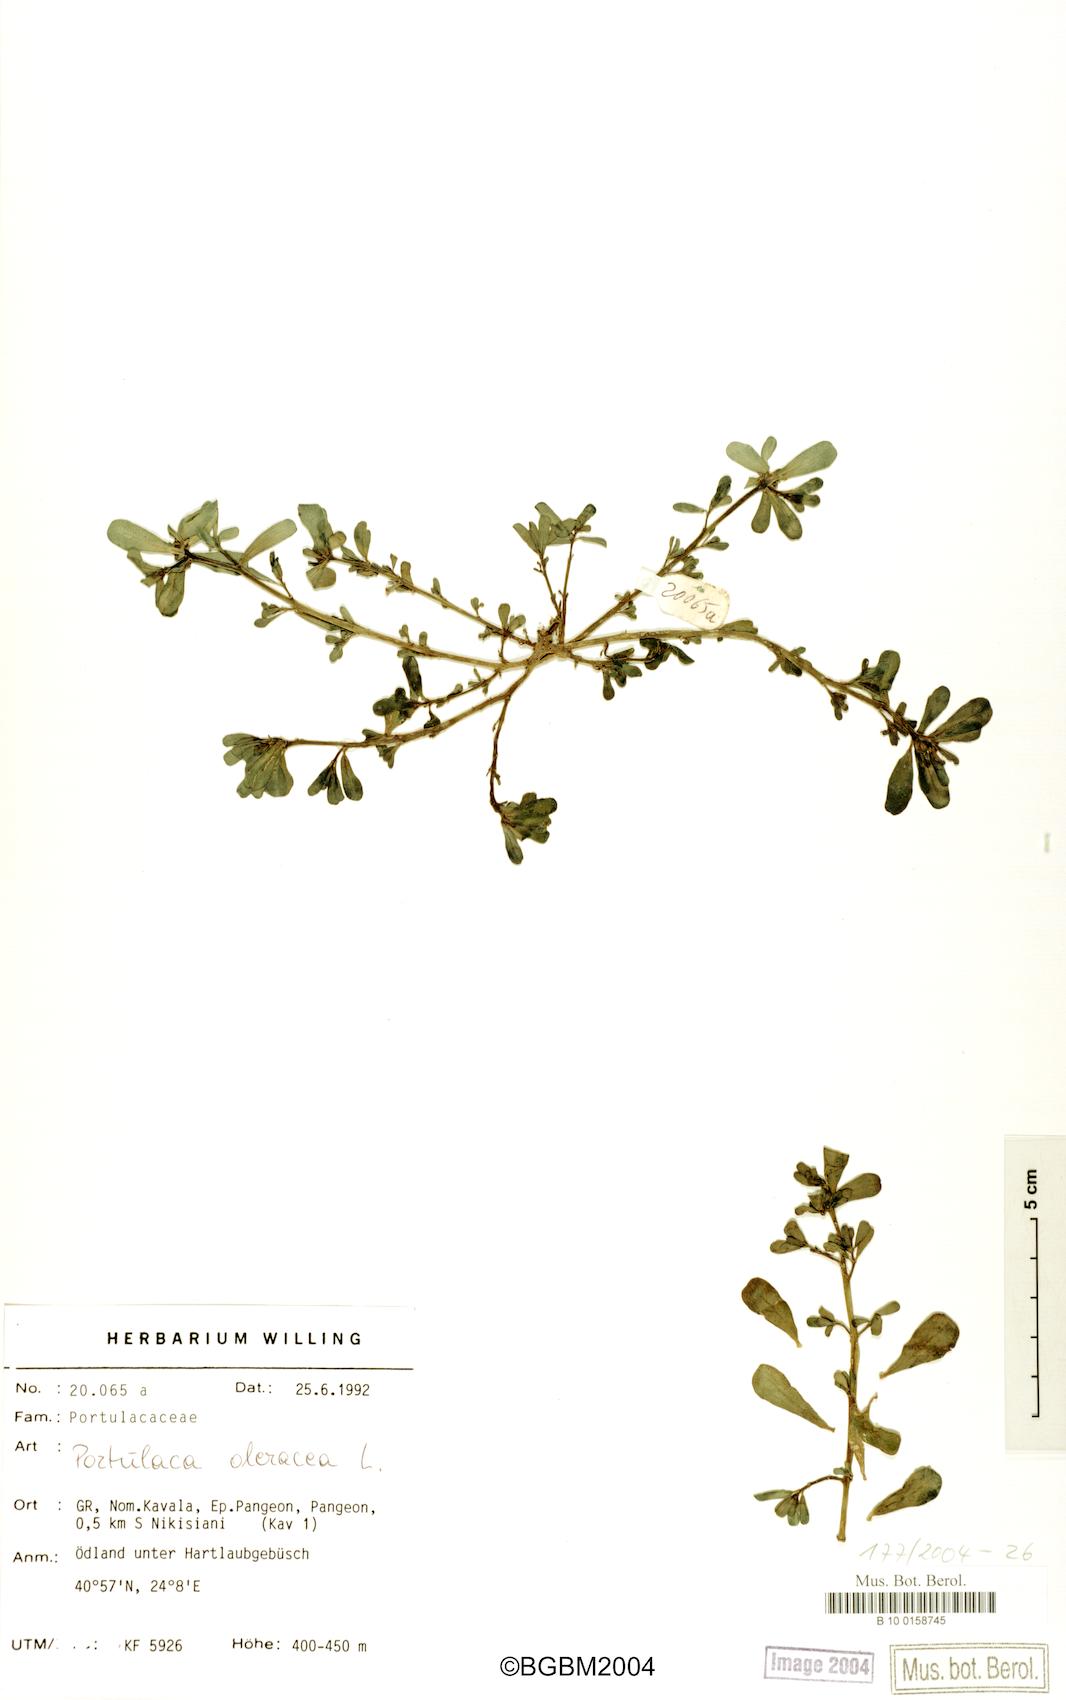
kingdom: Plantae
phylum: Tracheophyta
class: Magnoliopsida
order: Caryophyllales
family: Portulacaceae
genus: Portulaca
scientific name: Portulaca oleracea
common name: Common purslane
